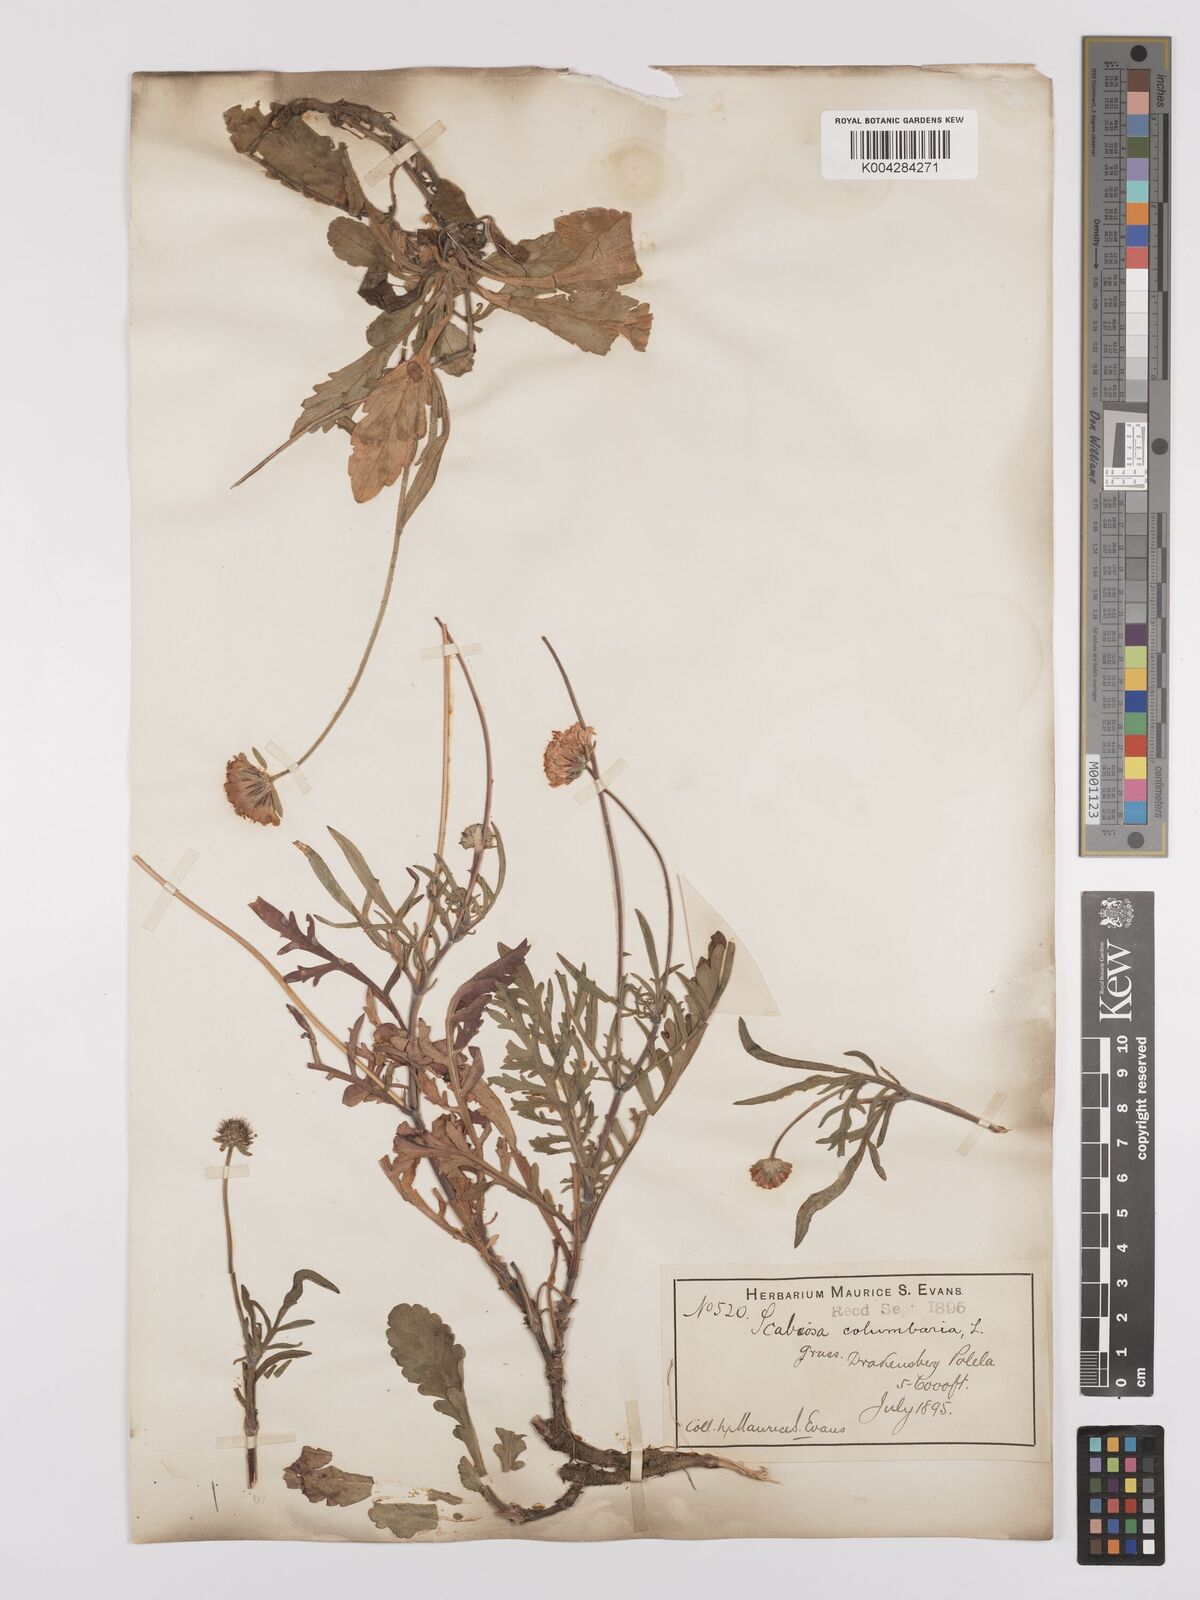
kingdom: Plantae
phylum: Tracheophyta
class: Magnoliopsida
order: Dipsacales
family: Caprifoliaceae
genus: Scabiosa
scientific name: Scabiosa columbaria
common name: Small scabious
